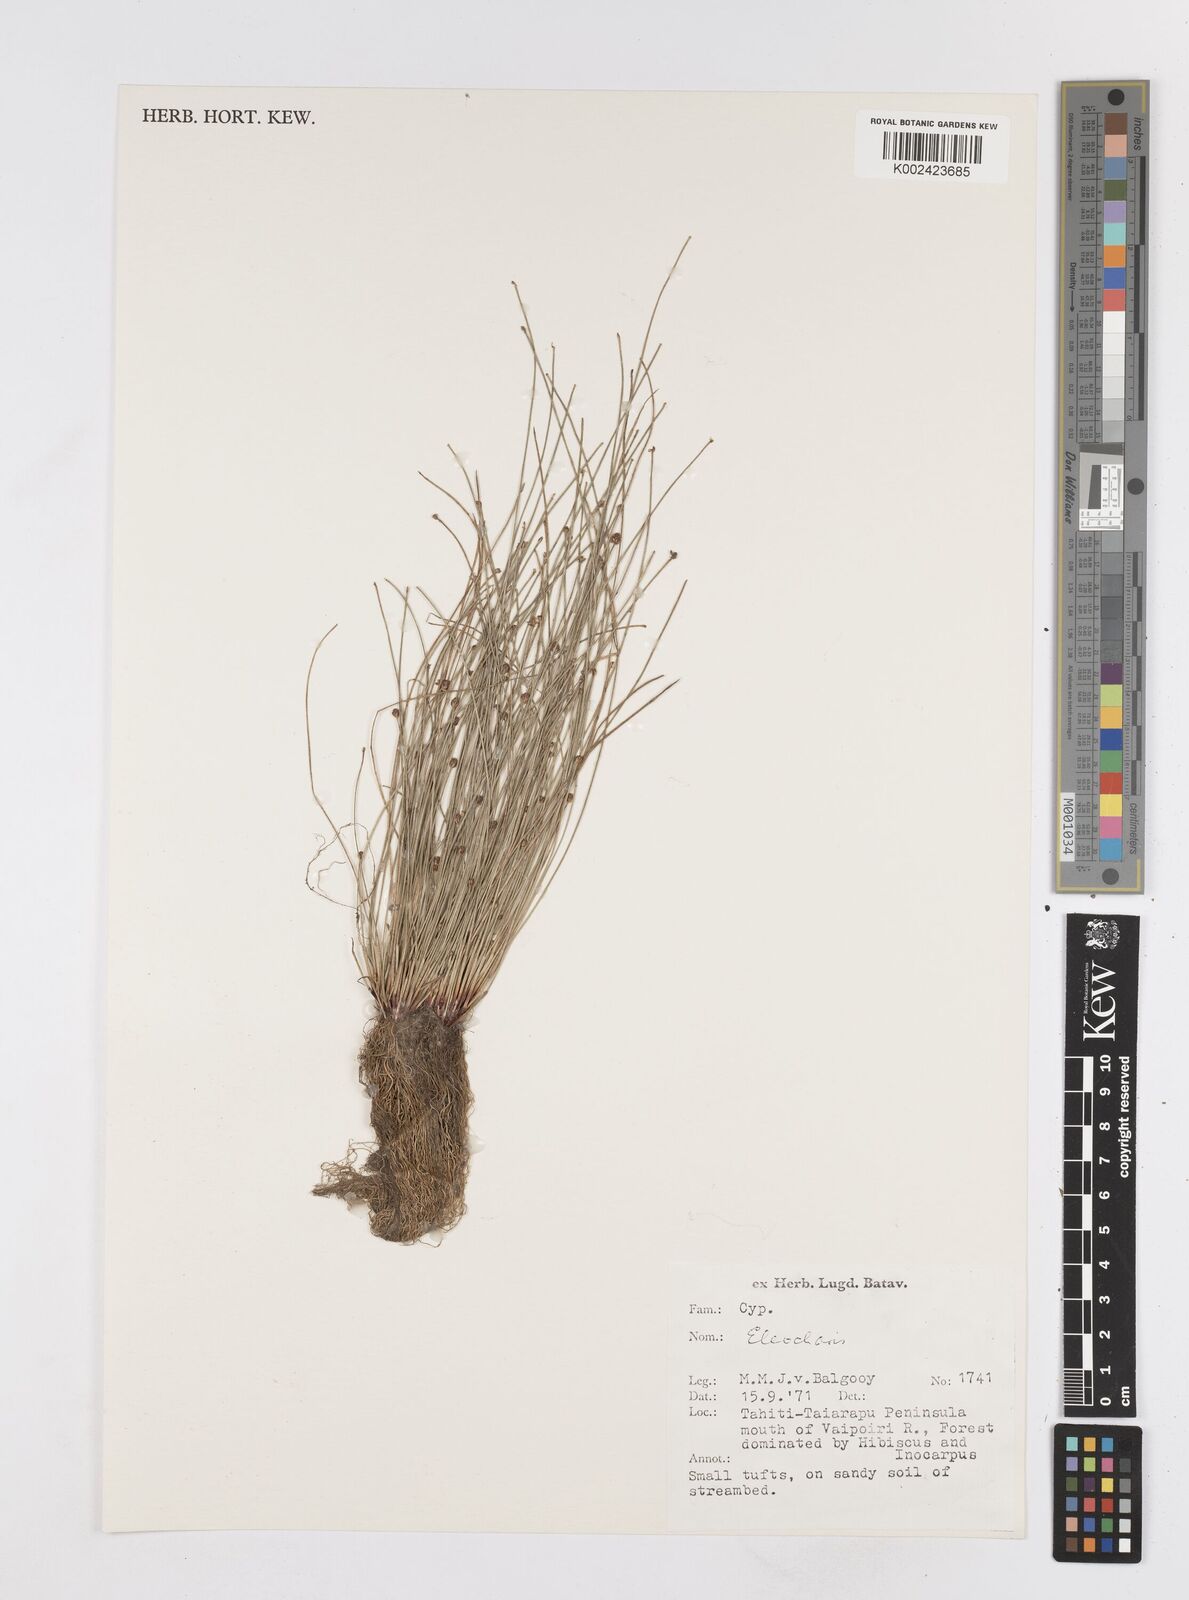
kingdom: Plantae
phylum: Tracheophyta
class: Liliopsida
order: Poales
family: Cyperaceae
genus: Eleocharis
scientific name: Eleocharis
